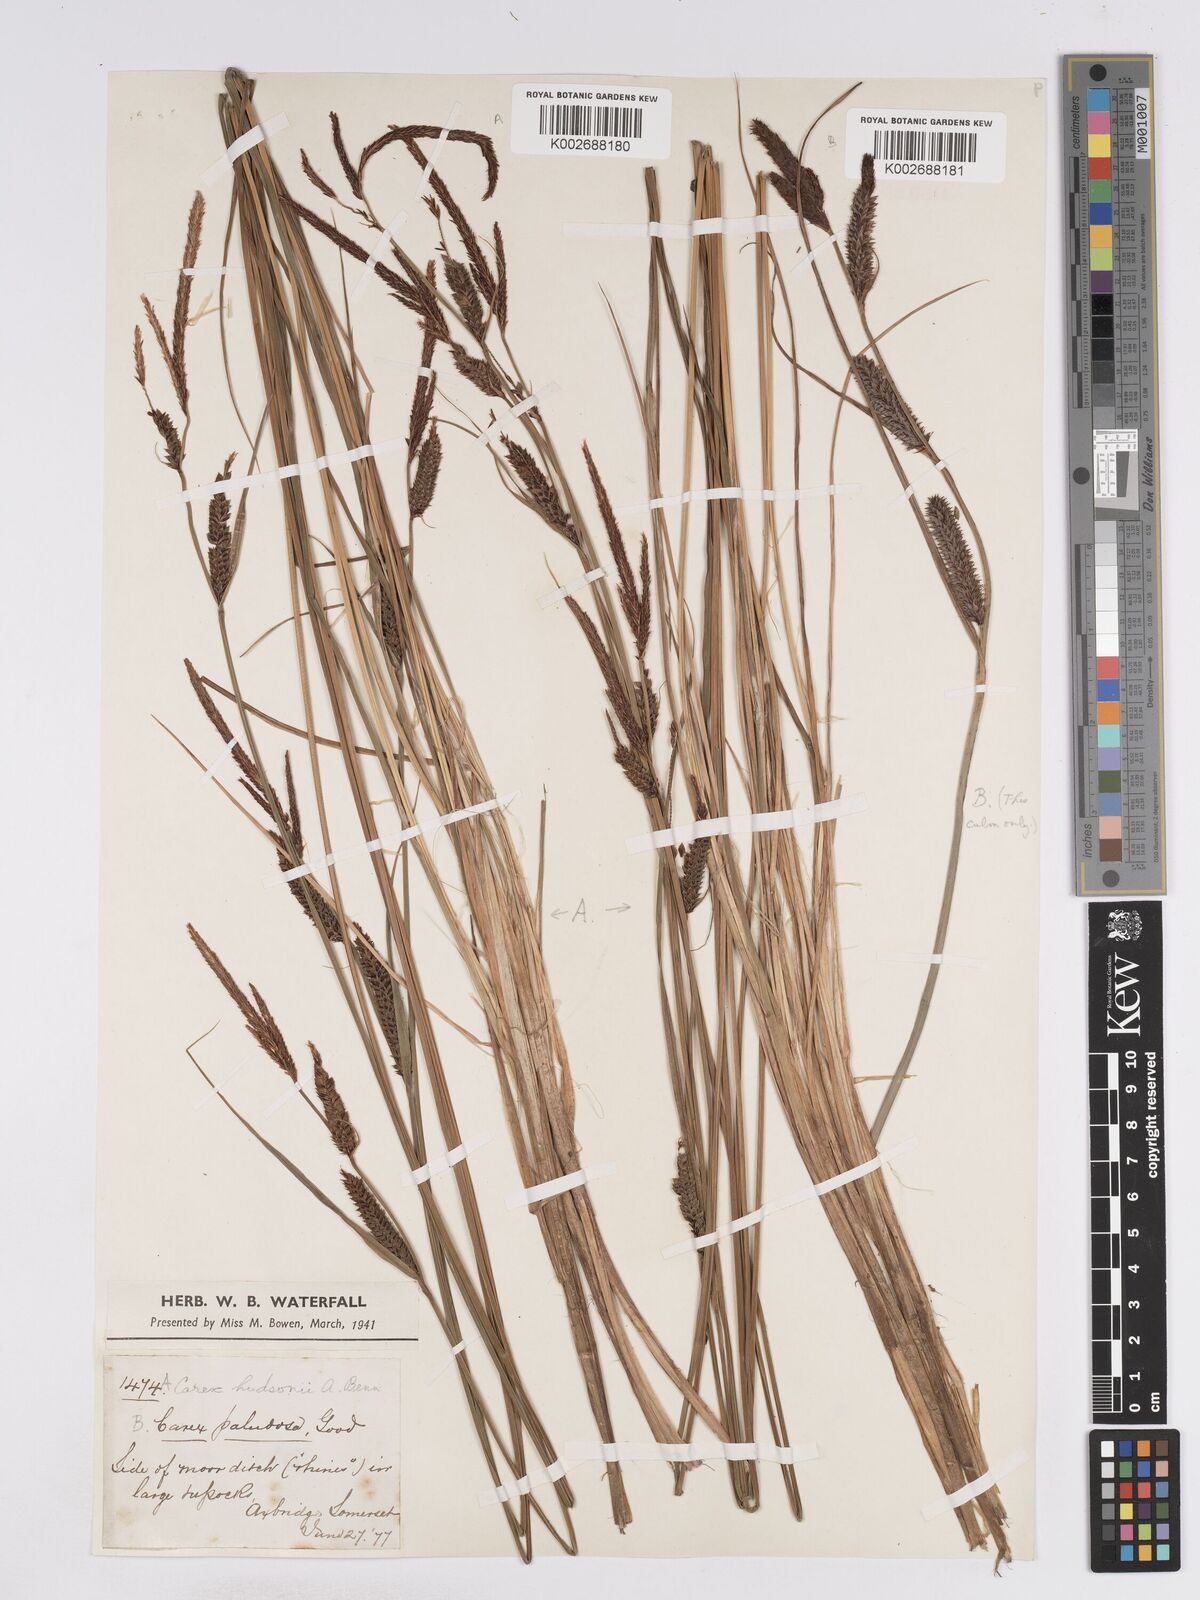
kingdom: Plantae
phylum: Tracheophyta
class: Liliopsida
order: Poales
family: Cyperaceae
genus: Carex
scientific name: Carex elata
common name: Tufted sedge
